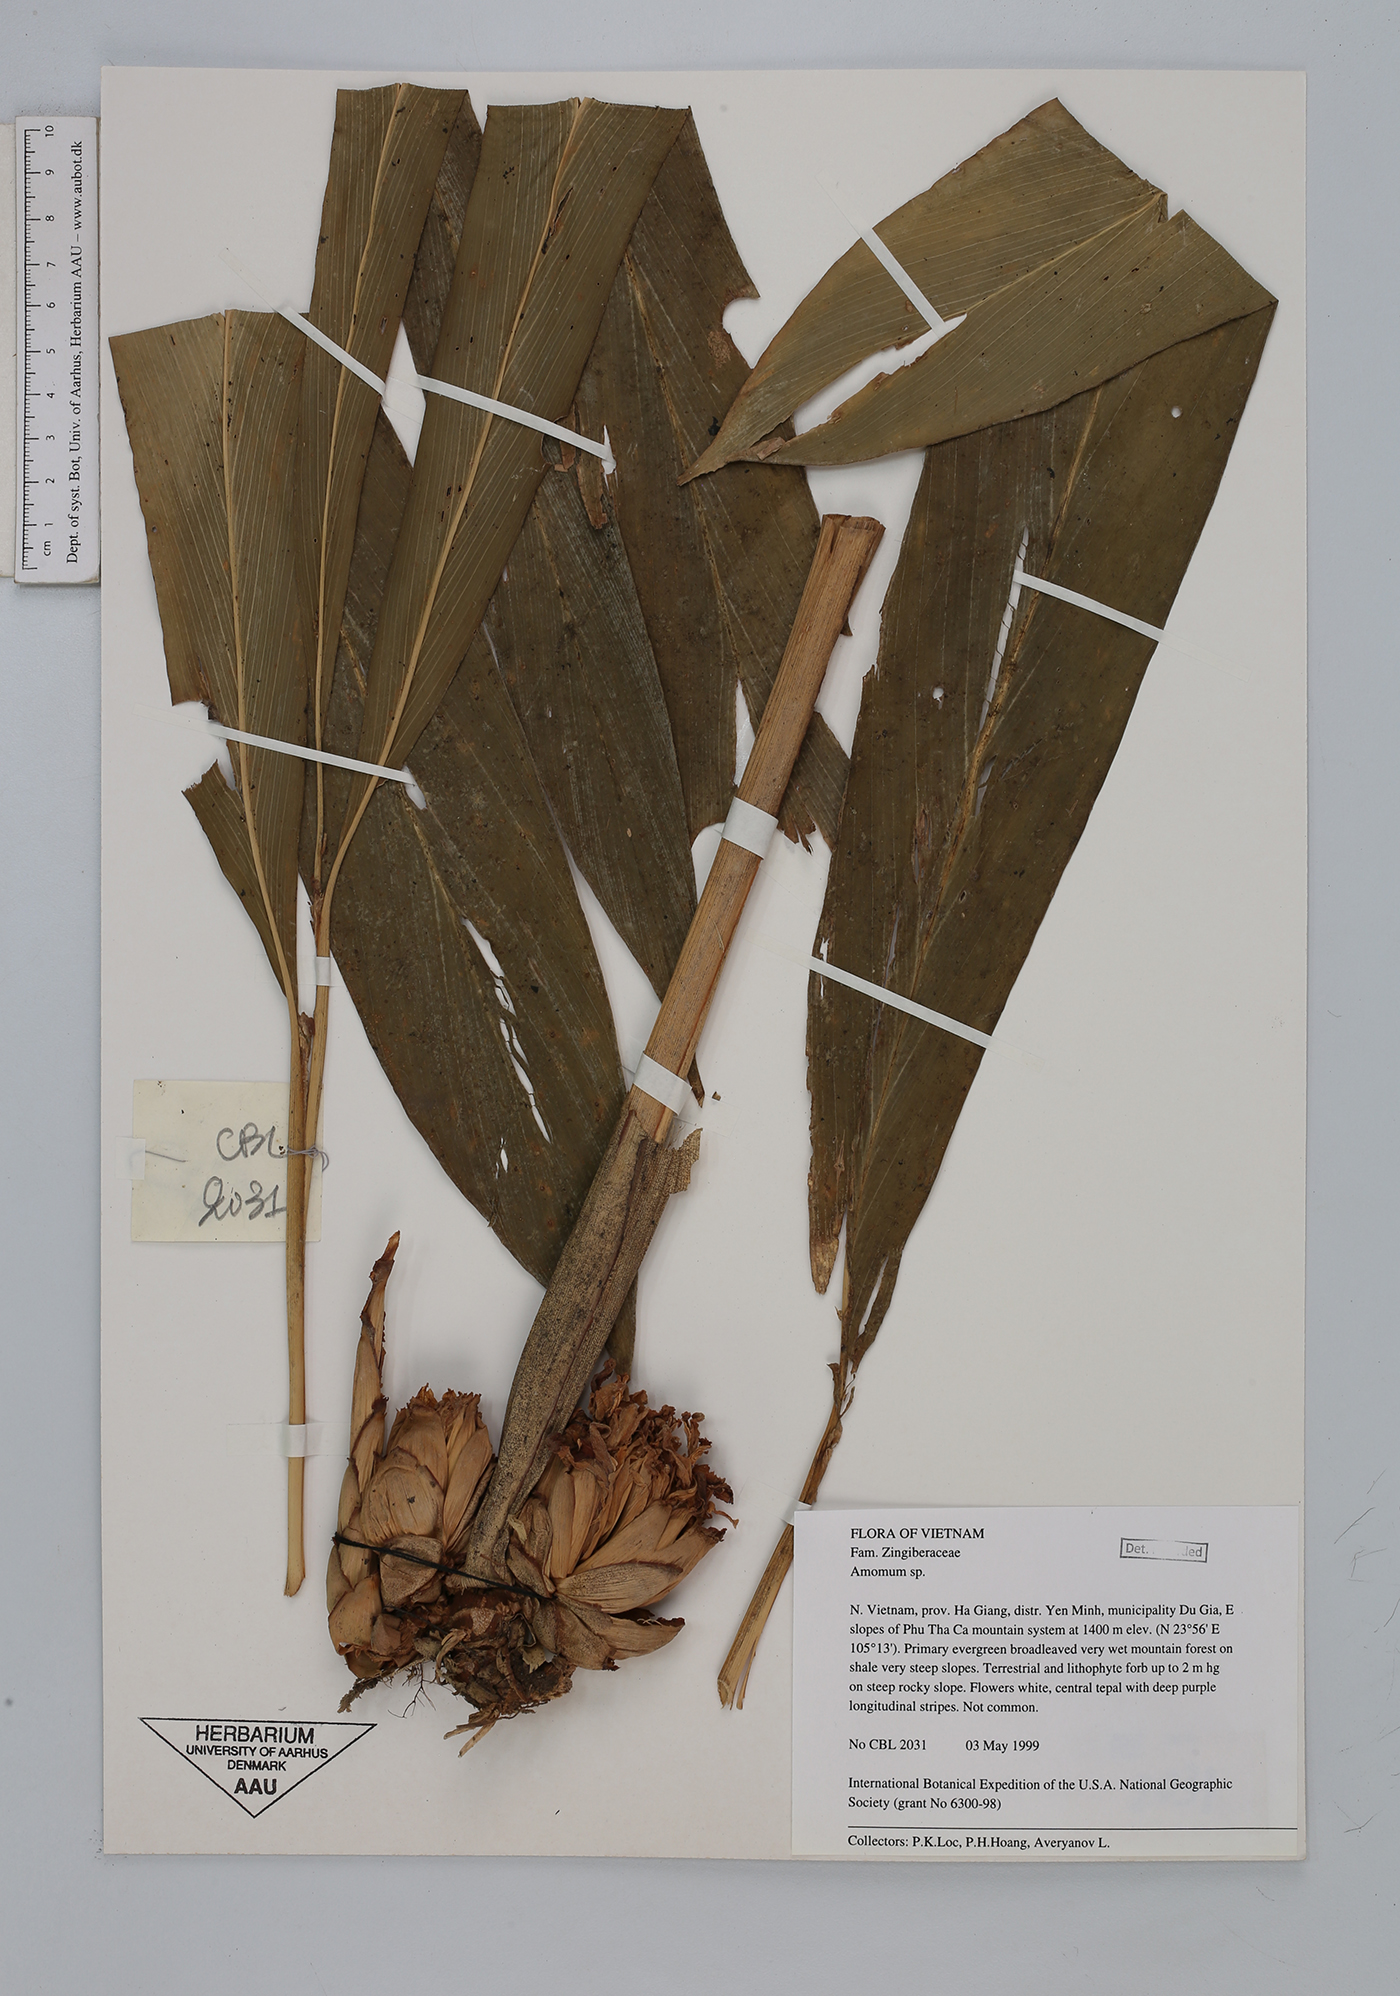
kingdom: Plantae
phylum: Tracheophyta
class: Liliopsida
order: Zingiberales
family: Zingiberaceae
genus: Amomum
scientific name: Amomum
